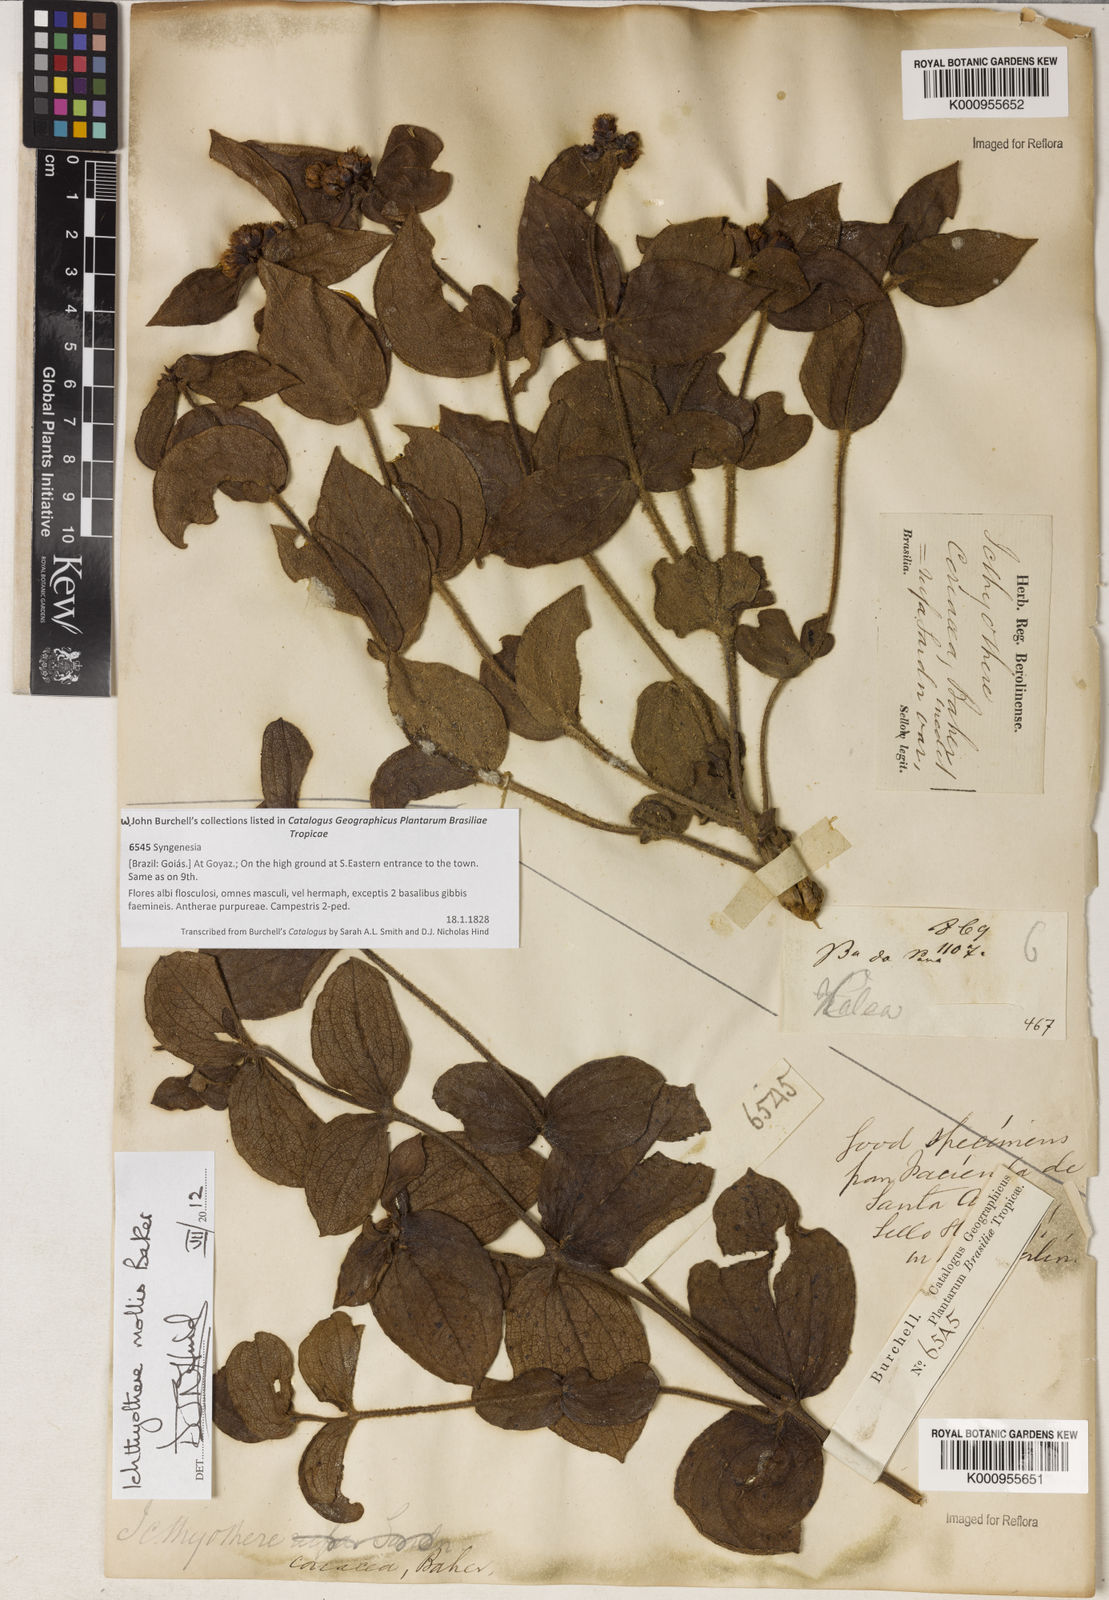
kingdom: Plantae
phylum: Tracheophyta
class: Magnoliopsida
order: Asterales
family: Asteraceae
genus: Ichthyothere
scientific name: Ichthyothere mollis
